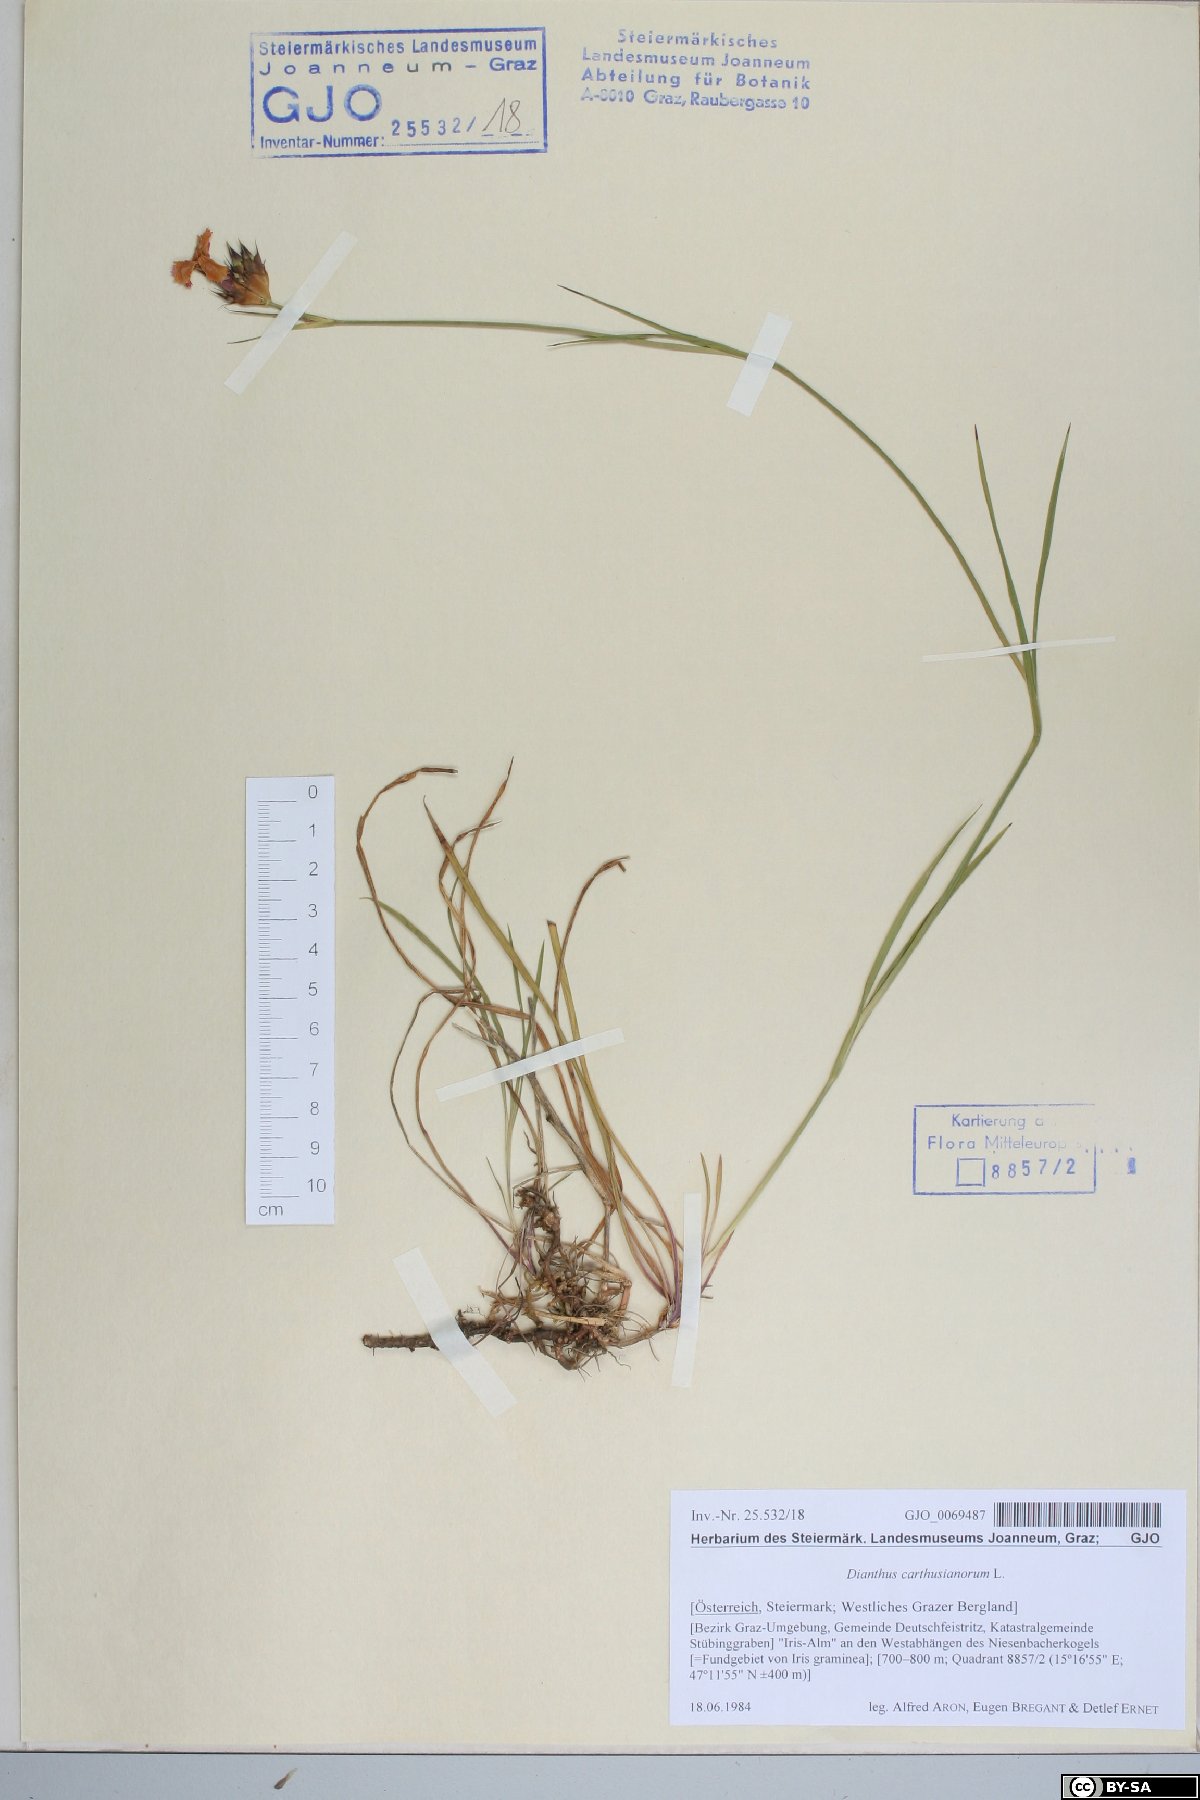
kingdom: Plantae
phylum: Tracheophyta
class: Magnoliopsida
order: Caryophyllales
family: Caryophyllaceae
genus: Dianthus
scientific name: Dianthus carthusianorum
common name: Carthusian pink
